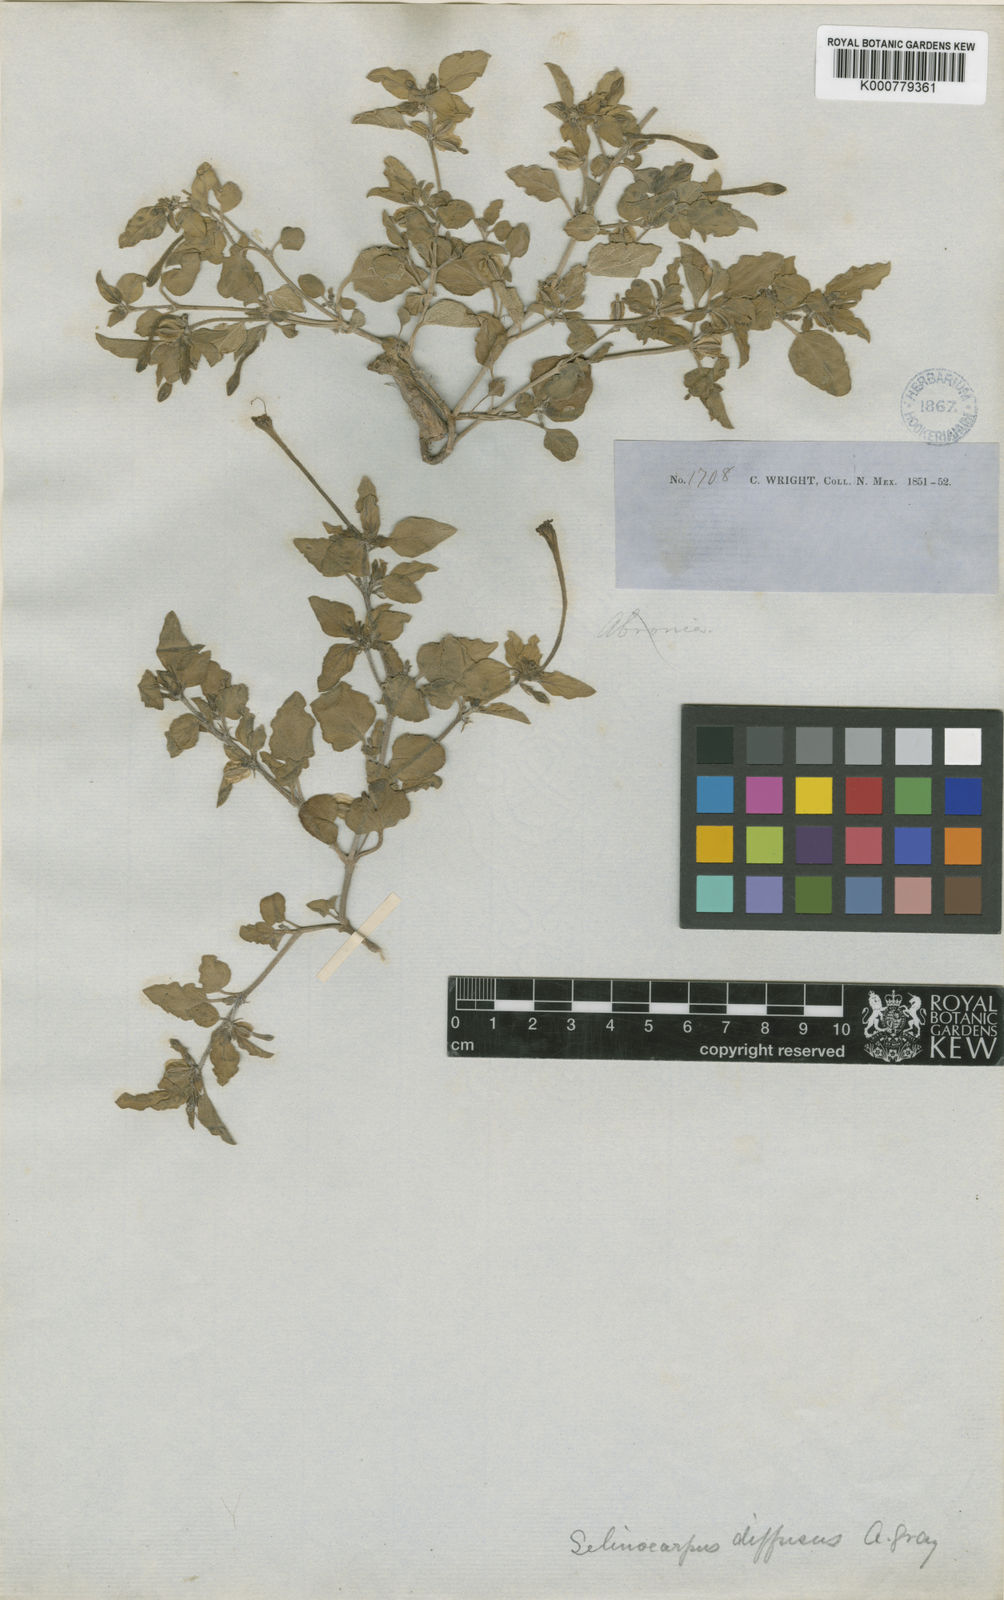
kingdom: Plantae
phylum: Tracheophyta
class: Magnoliopsida
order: Caryophyllales
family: Nyctaginaceae
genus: Acleisanthes
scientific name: Acleisanthes diffusa
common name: Spreading moonpod
